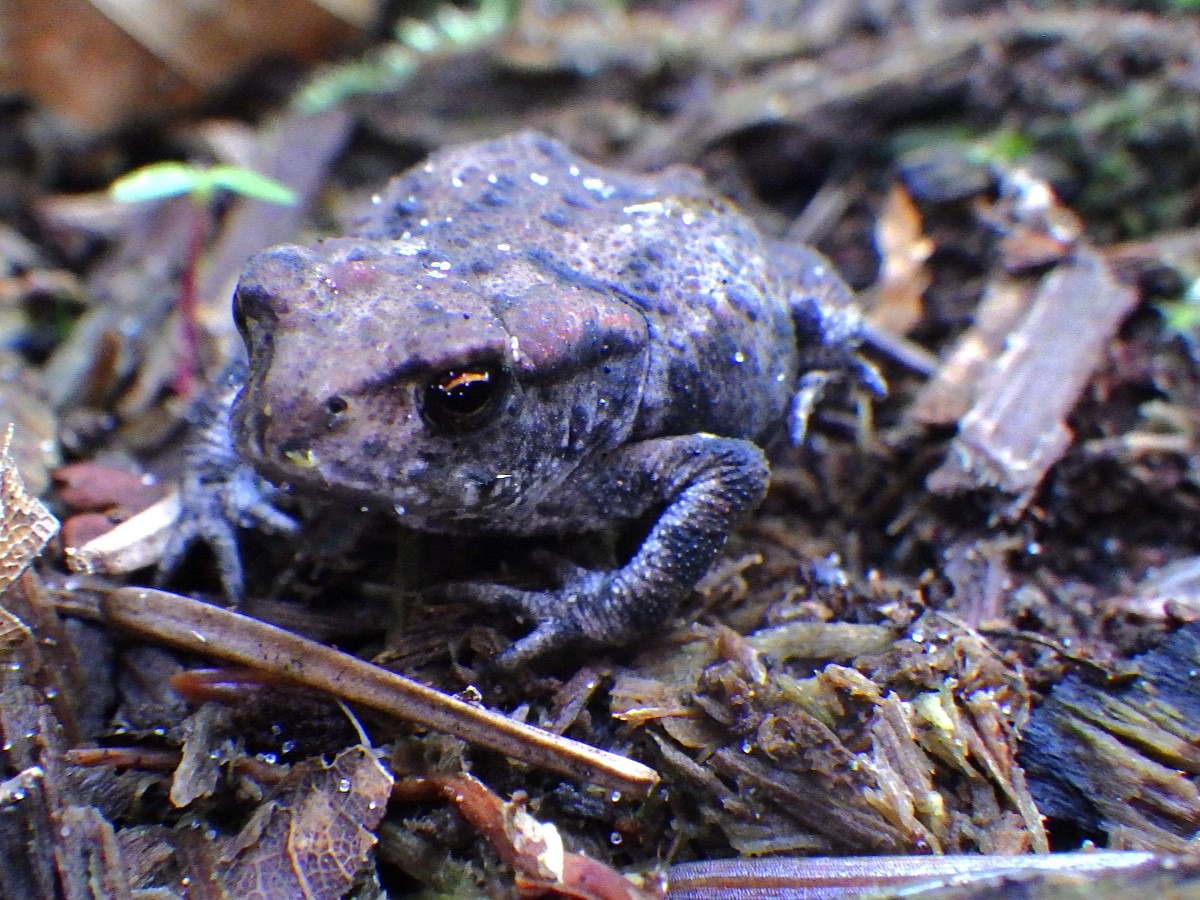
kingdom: Animalia
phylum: Chordata
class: Amphibia
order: Anura
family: Bufonidae
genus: Bufo
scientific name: Bufo bufo
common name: Skrubtudse
